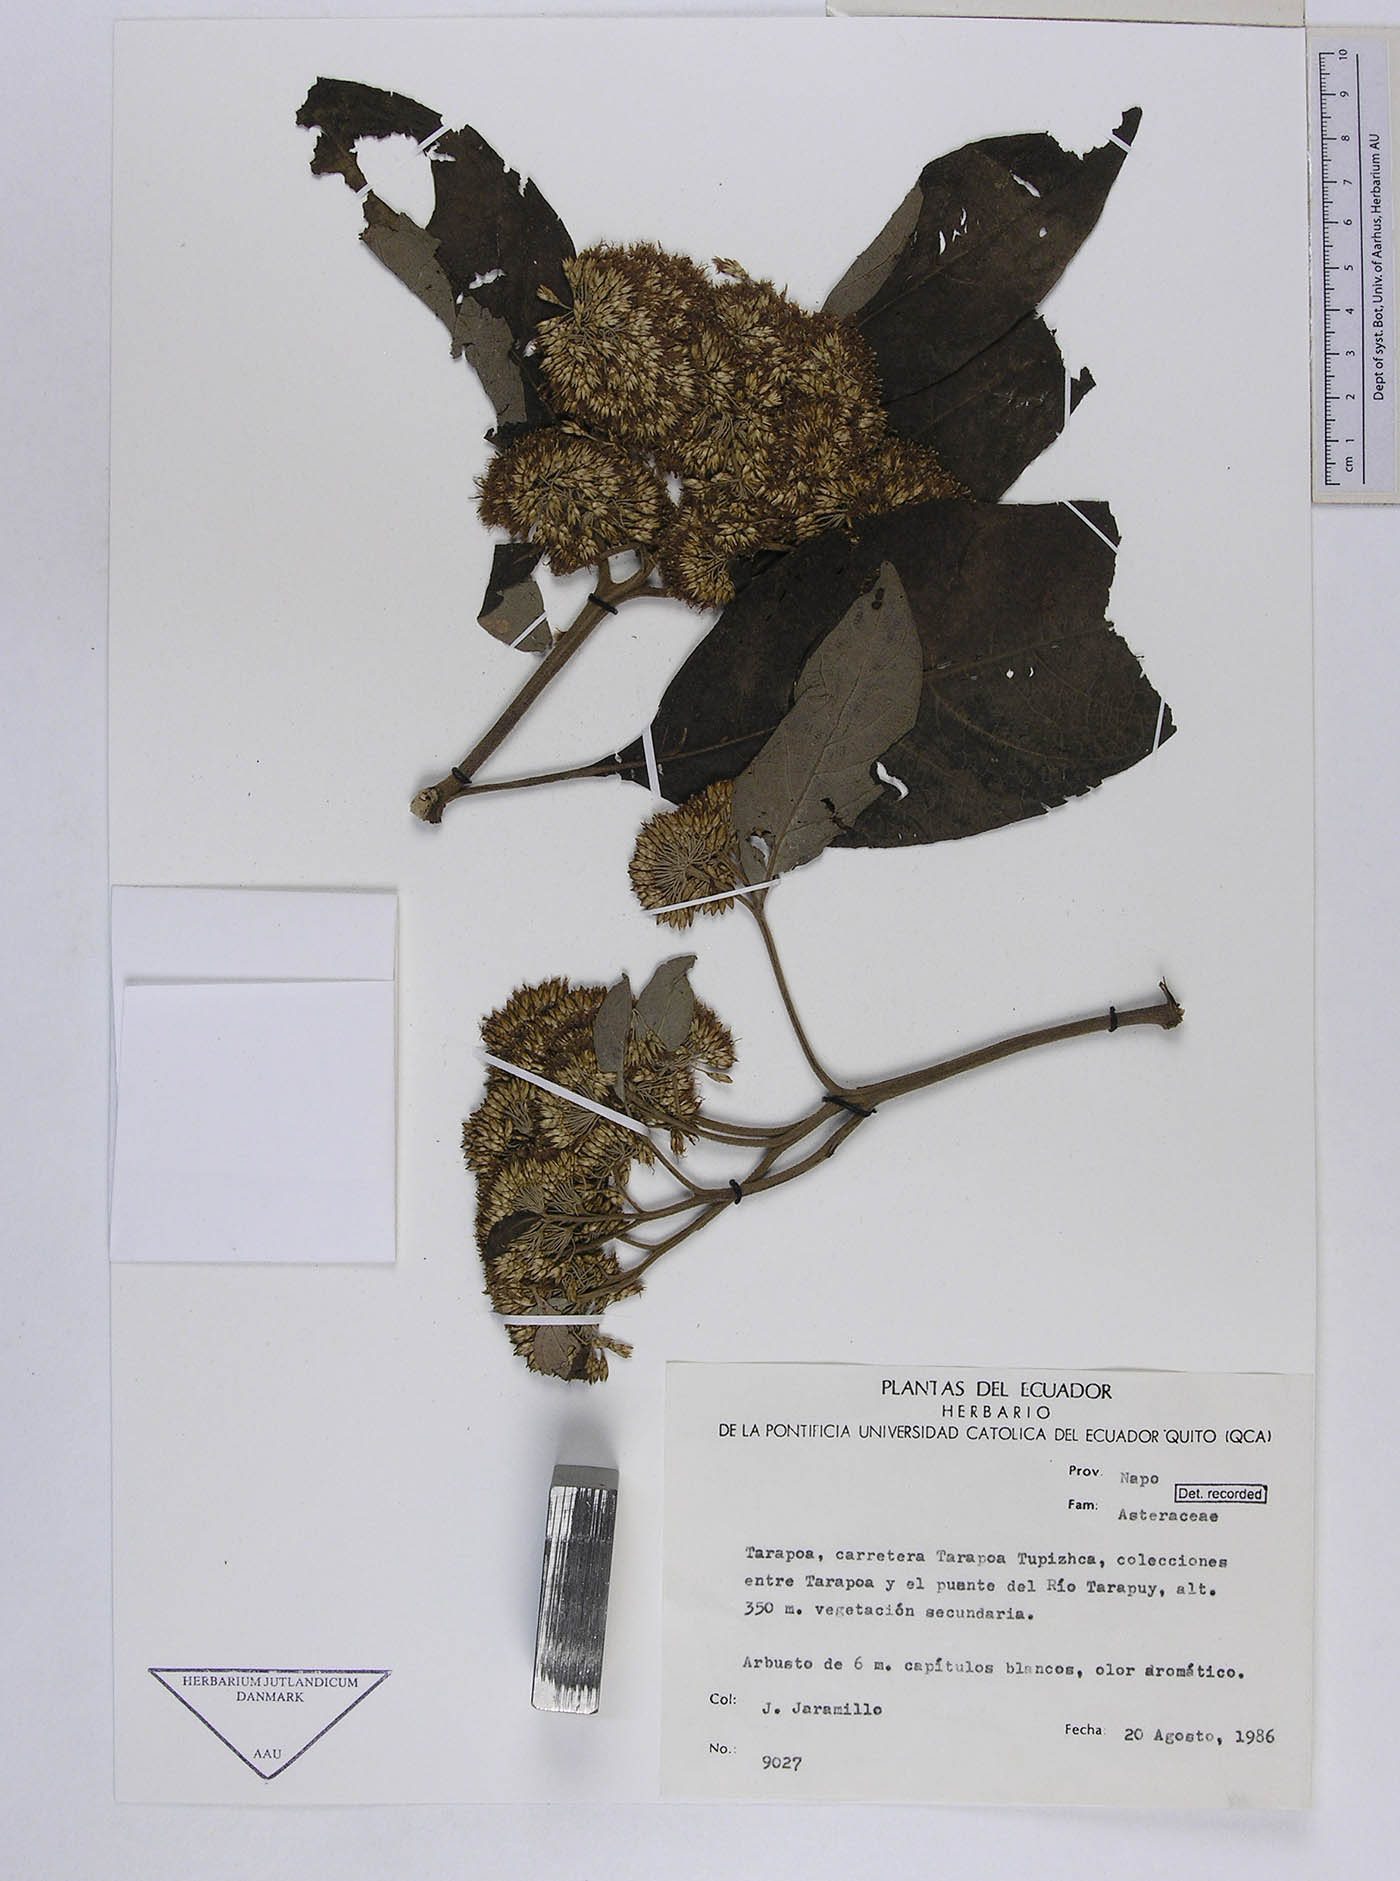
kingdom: Plantae
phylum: Tracheophyta
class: Magnoliopsida
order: Asterales
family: Asteraceae
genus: Piptocoma
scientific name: Piptocoma discolor
